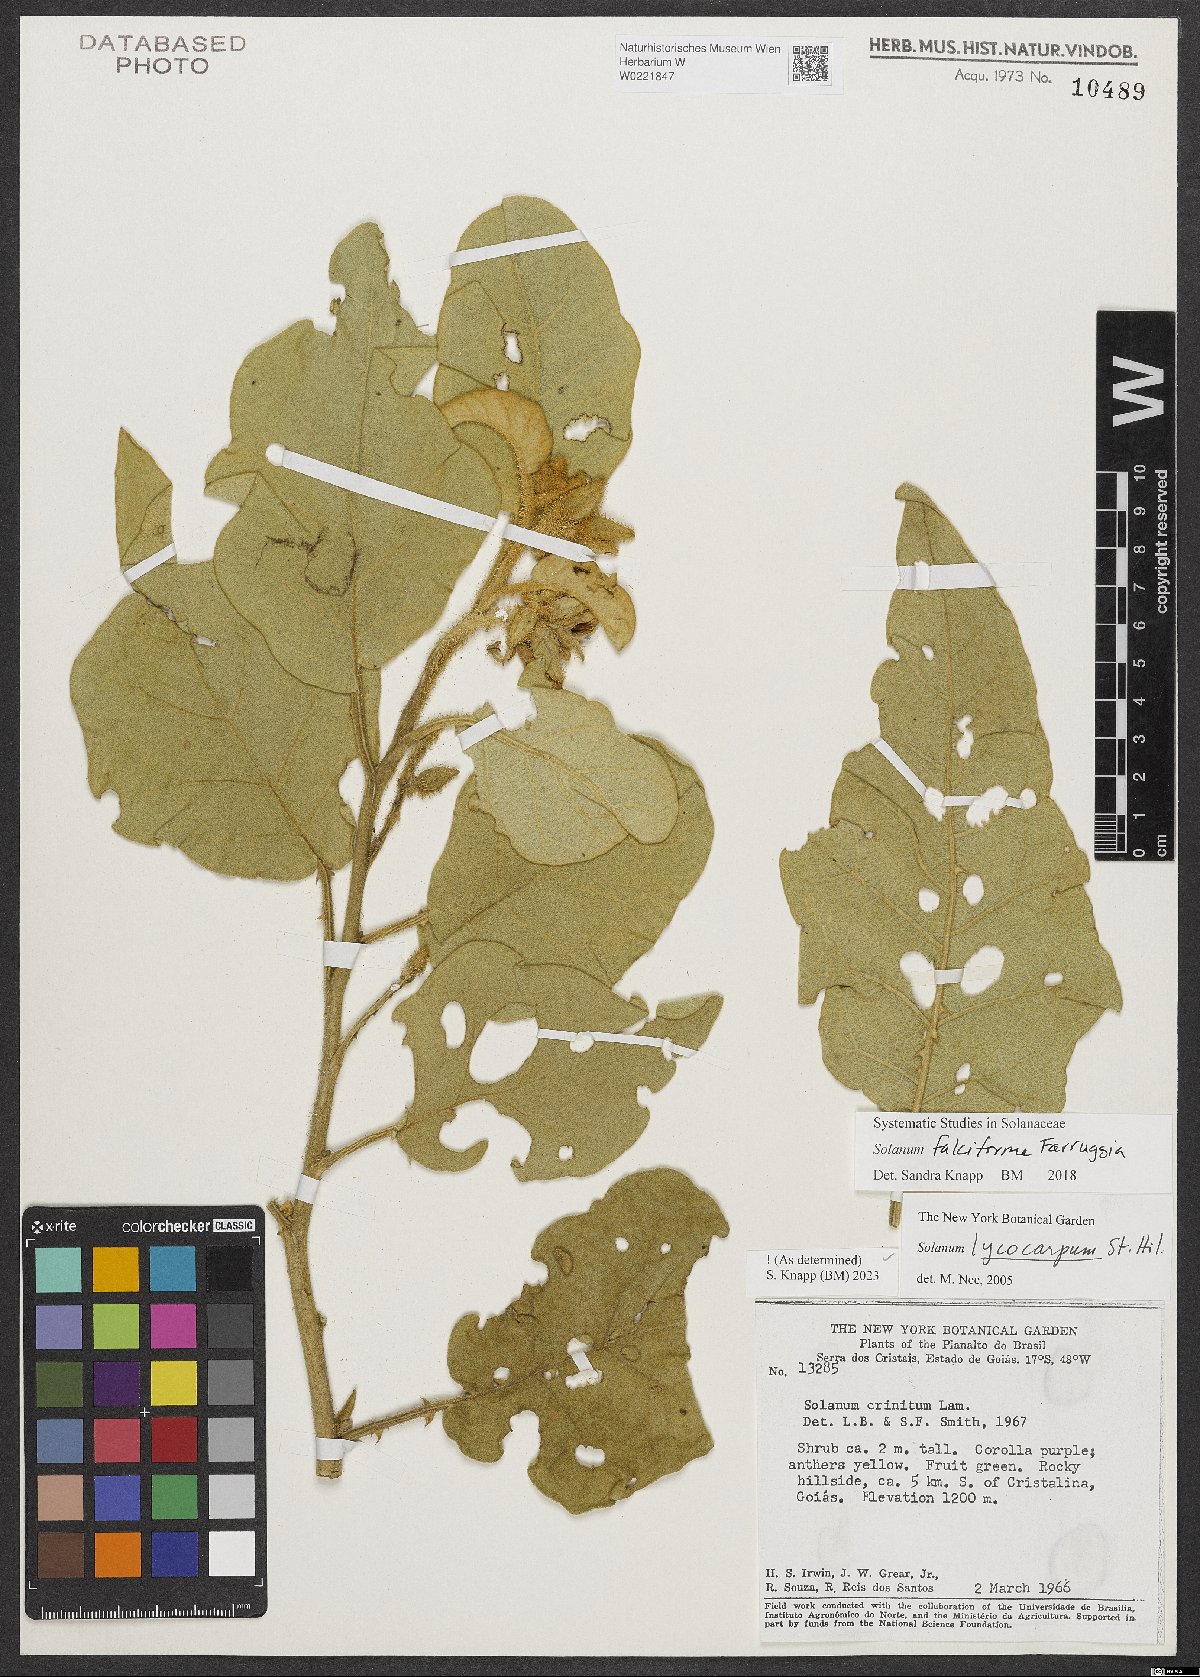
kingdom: Plantae
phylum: Tracheophyta
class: Magnoliopsida
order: Solanales
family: Solanaceae
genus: Solanum
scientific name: Solanum falciforme
